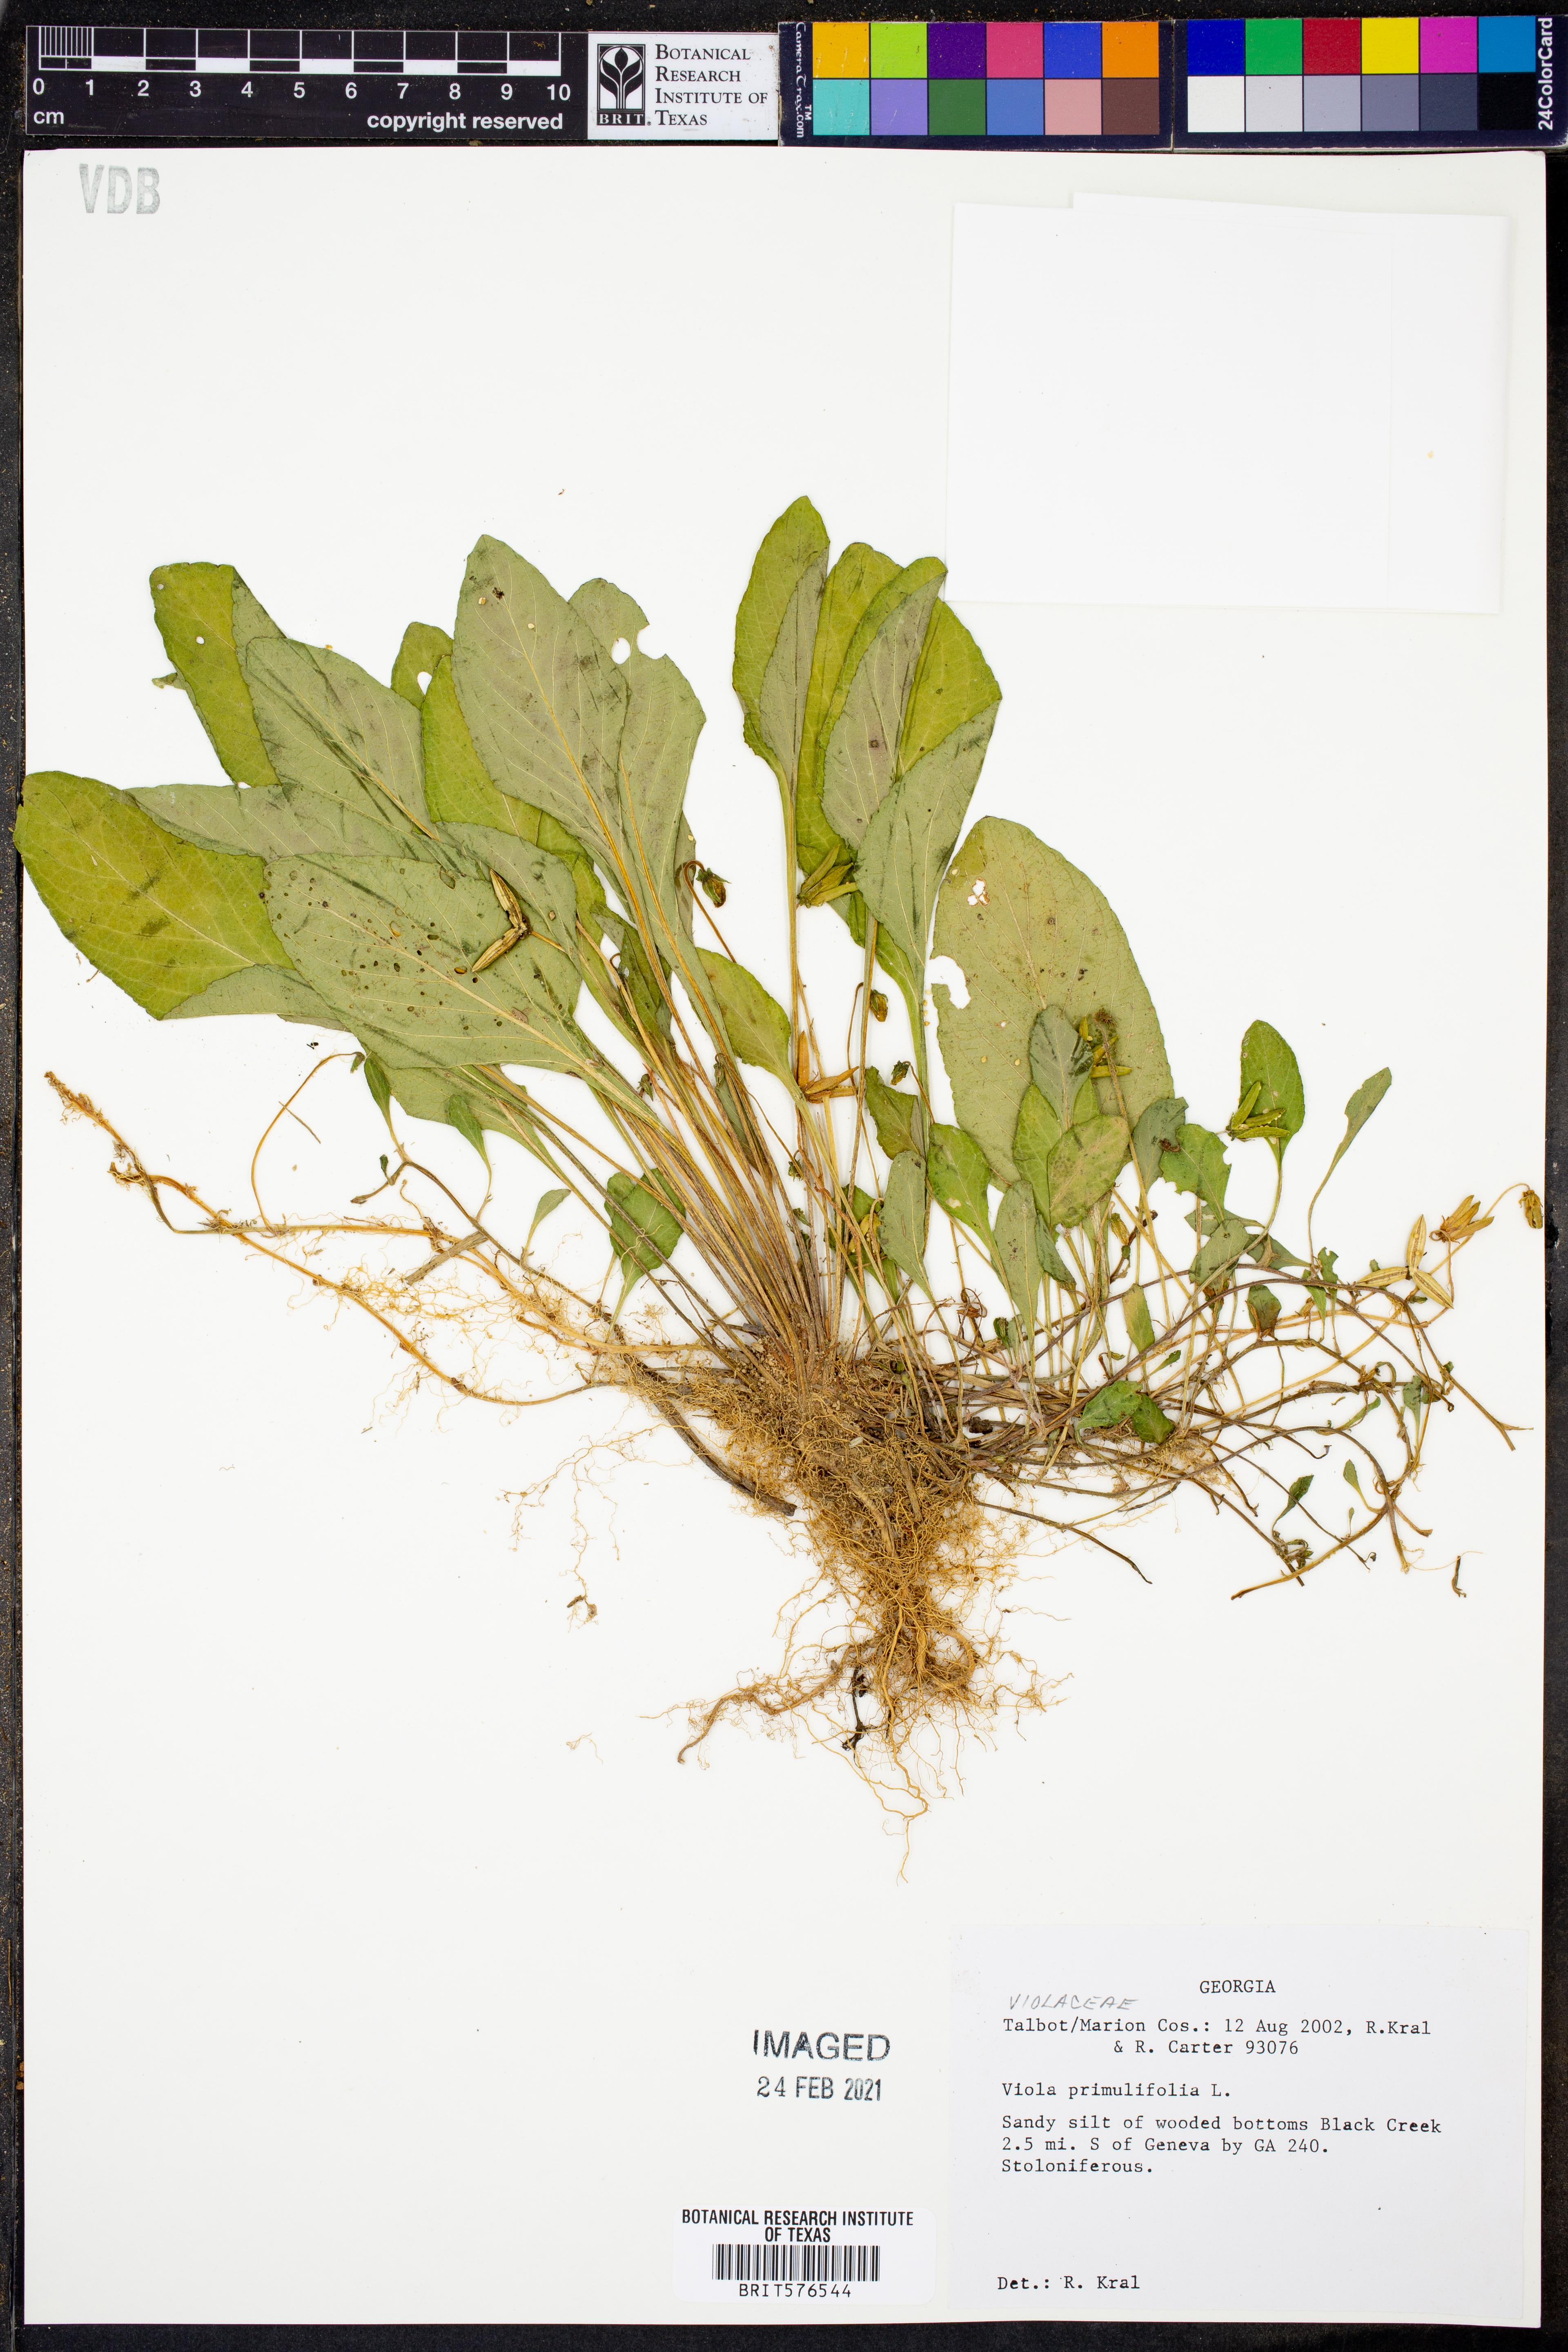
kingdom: Plantae
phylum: Tracheophyta
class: Magnoliopsida
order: Malpighiales
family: Violaceae
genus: Viola
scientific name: Viola primulifolia
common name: Primrose-leaf violet
